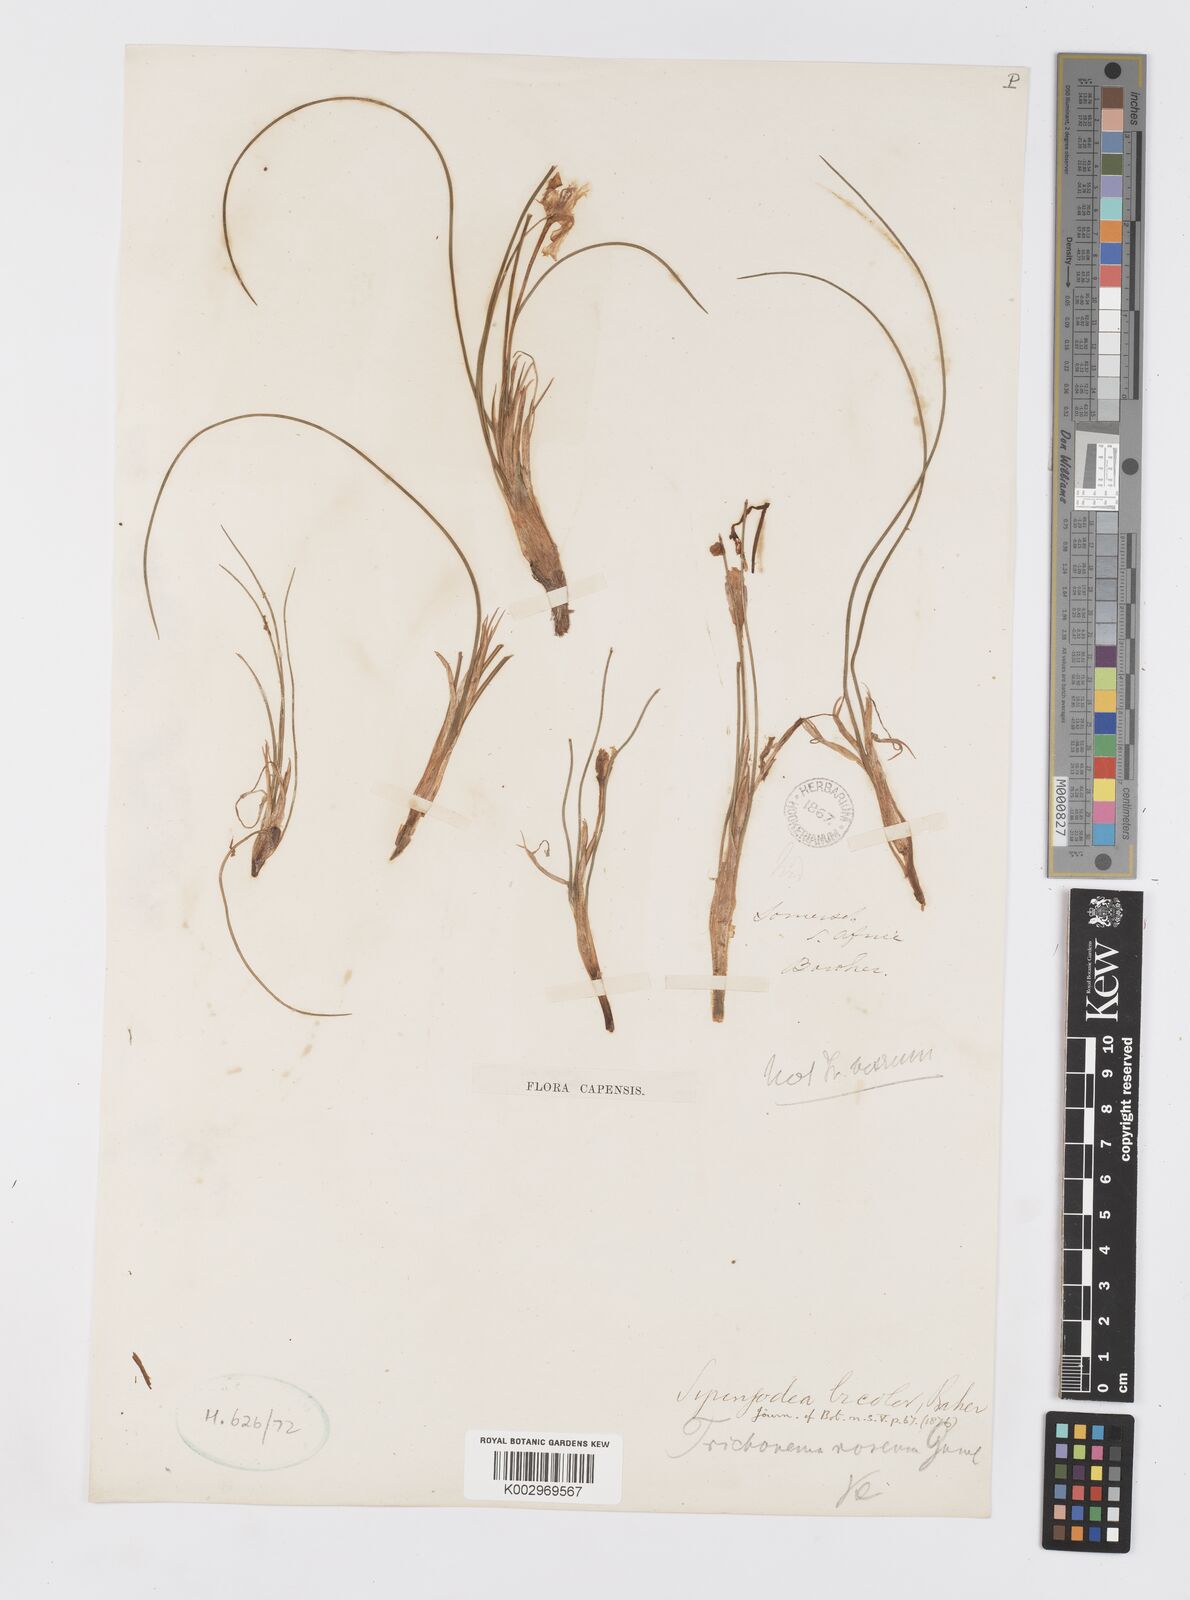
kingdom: Plantae
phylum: Tracheophyta
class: Liliopsida
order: Asparagales
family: Iridaceae
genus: Syringodea
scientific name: Syringodea bifucata
